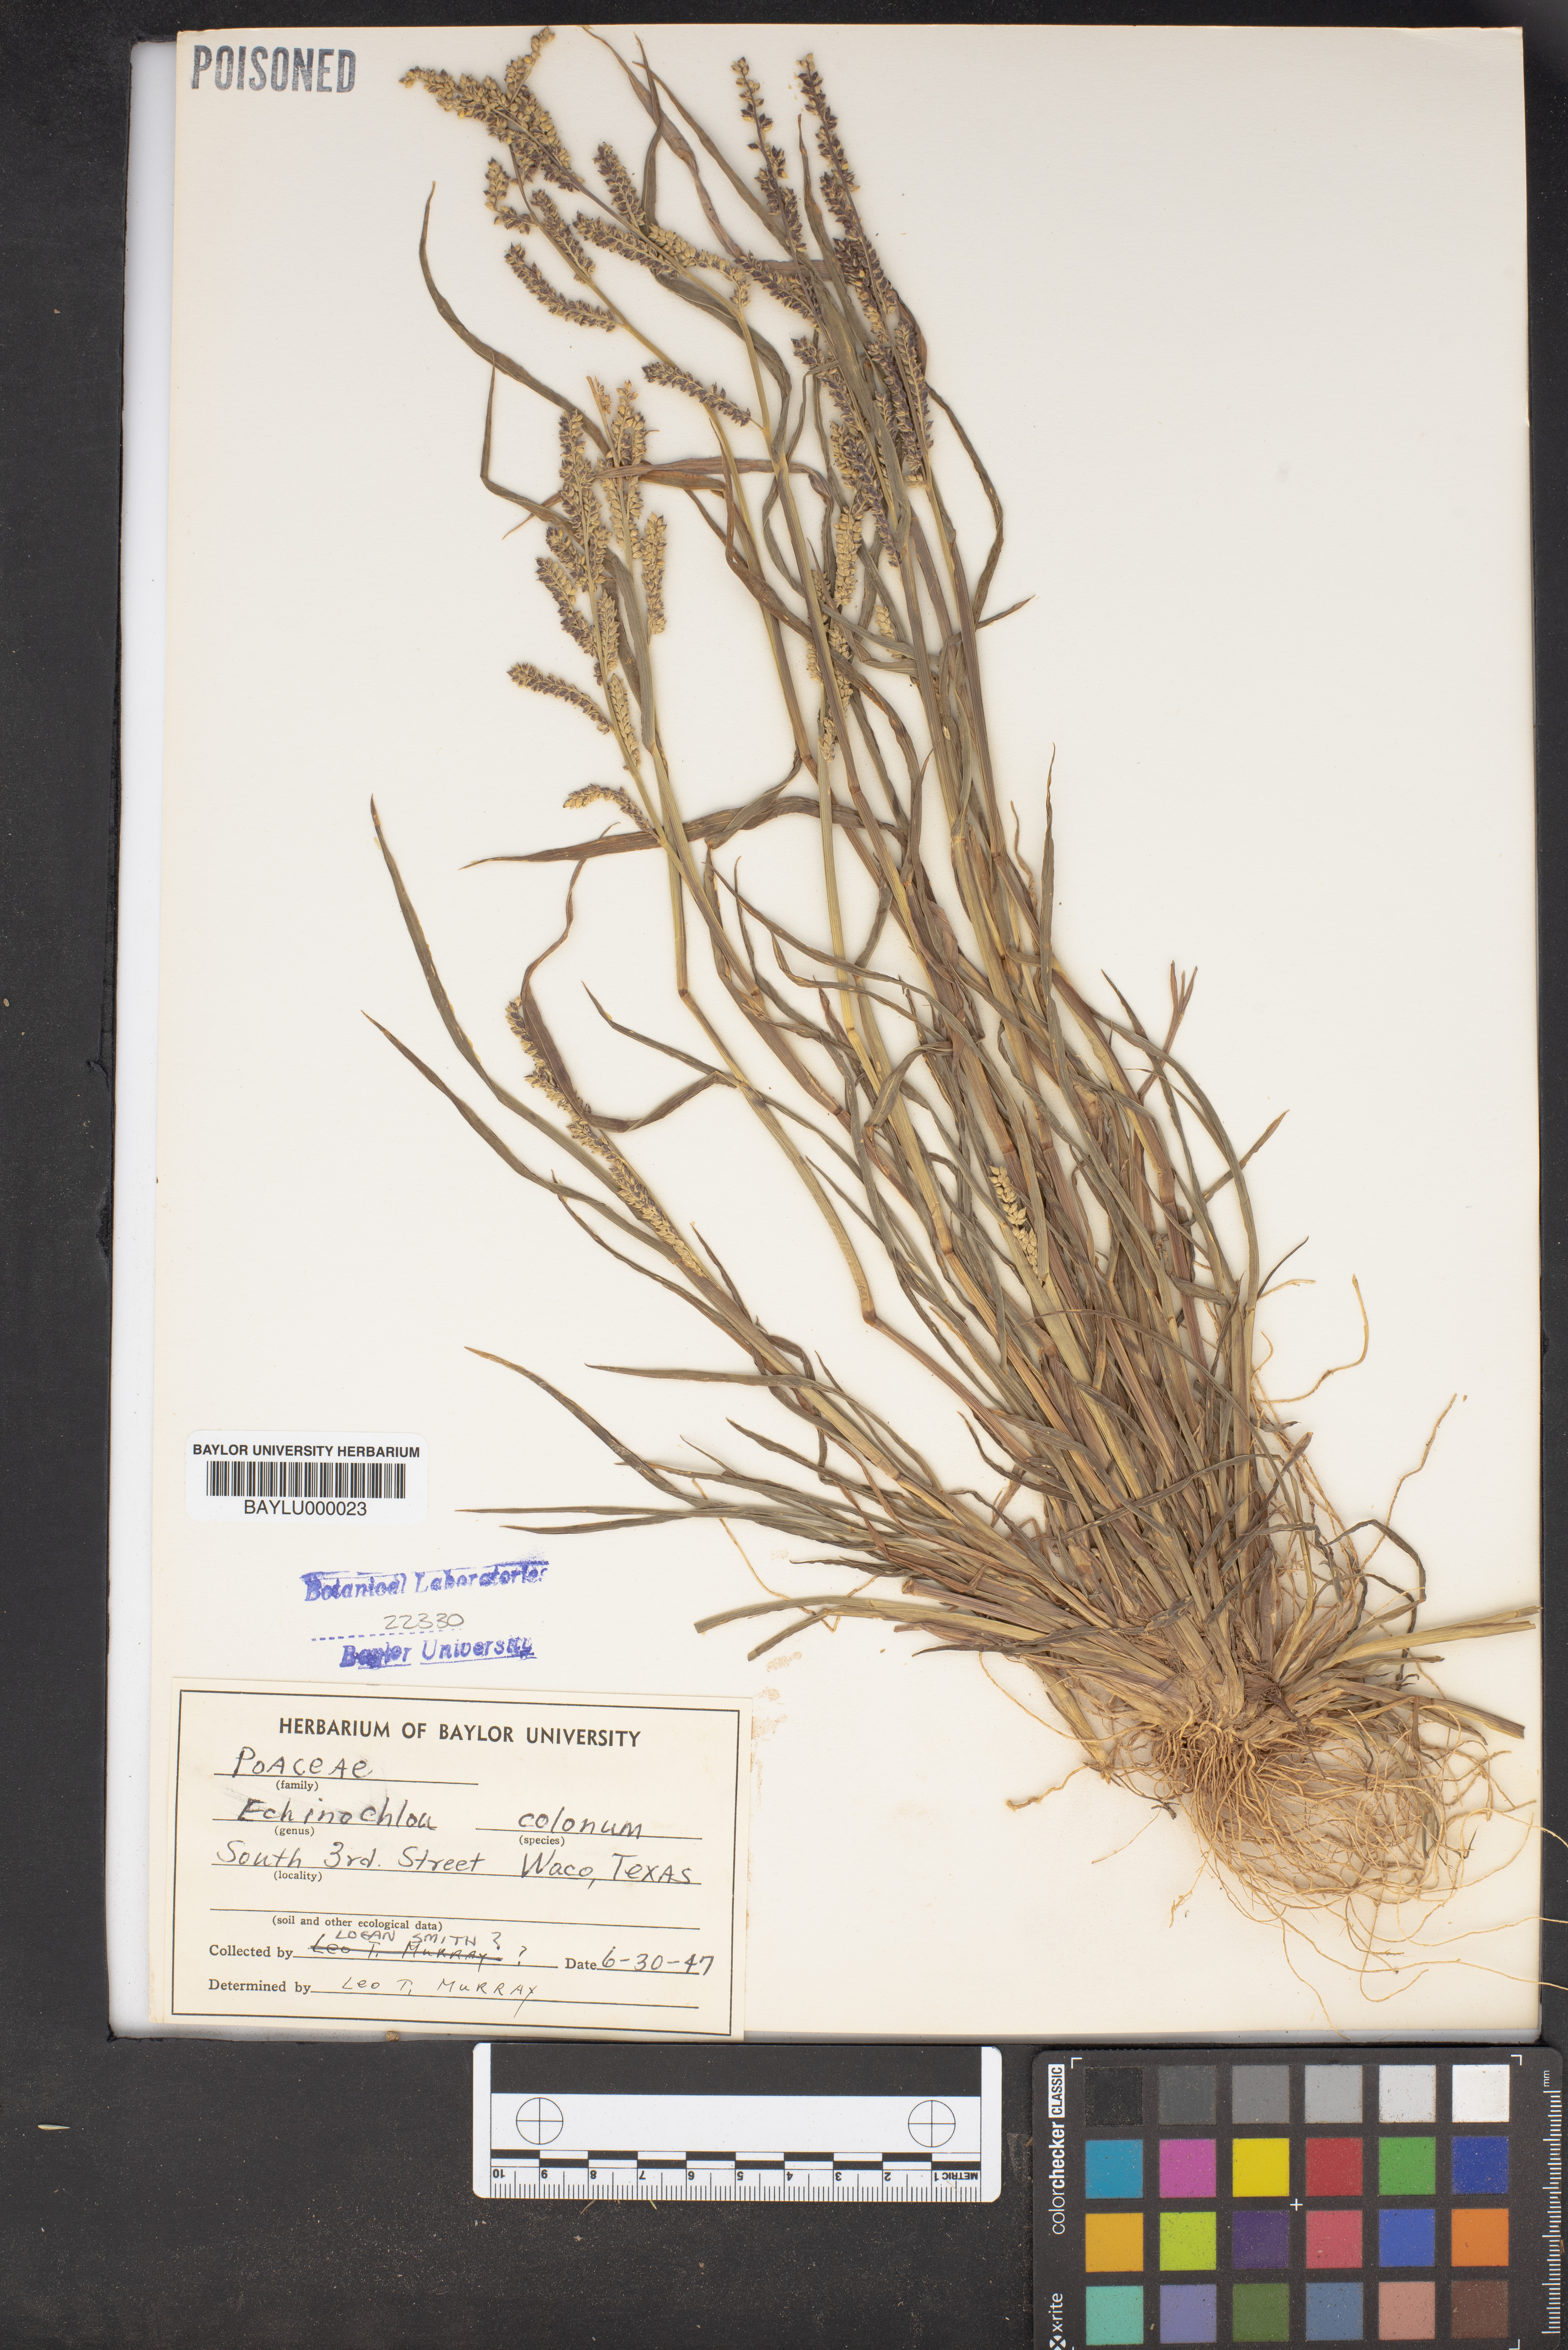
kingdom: Plantae
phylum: Tracheophyta
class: Liliopsida
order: Poales
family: Poaceae
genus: Echinochloa
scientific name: Echinochloa colonum
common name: Jungle rice
